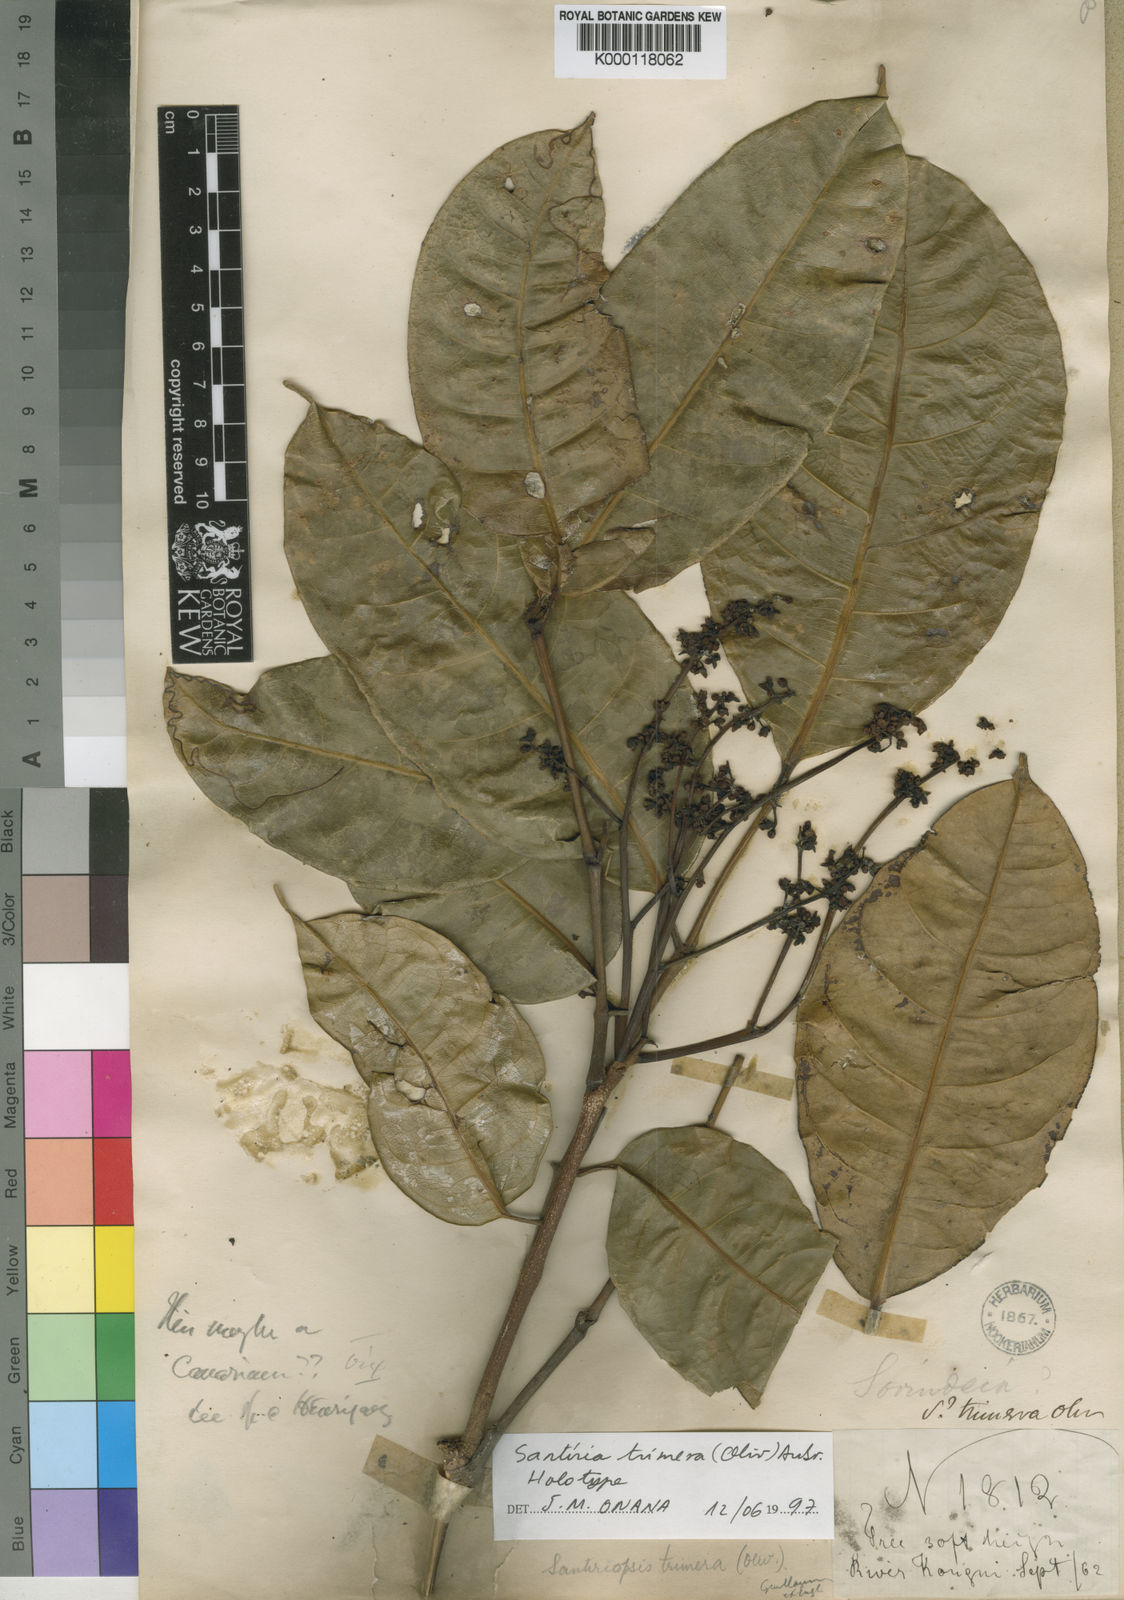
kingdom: Plantae
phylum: Tracheophyta
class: Magnoliopsida
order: Sapindales
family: Burseraceae
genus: Pachylobus
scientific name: Pachylobus trimerus
